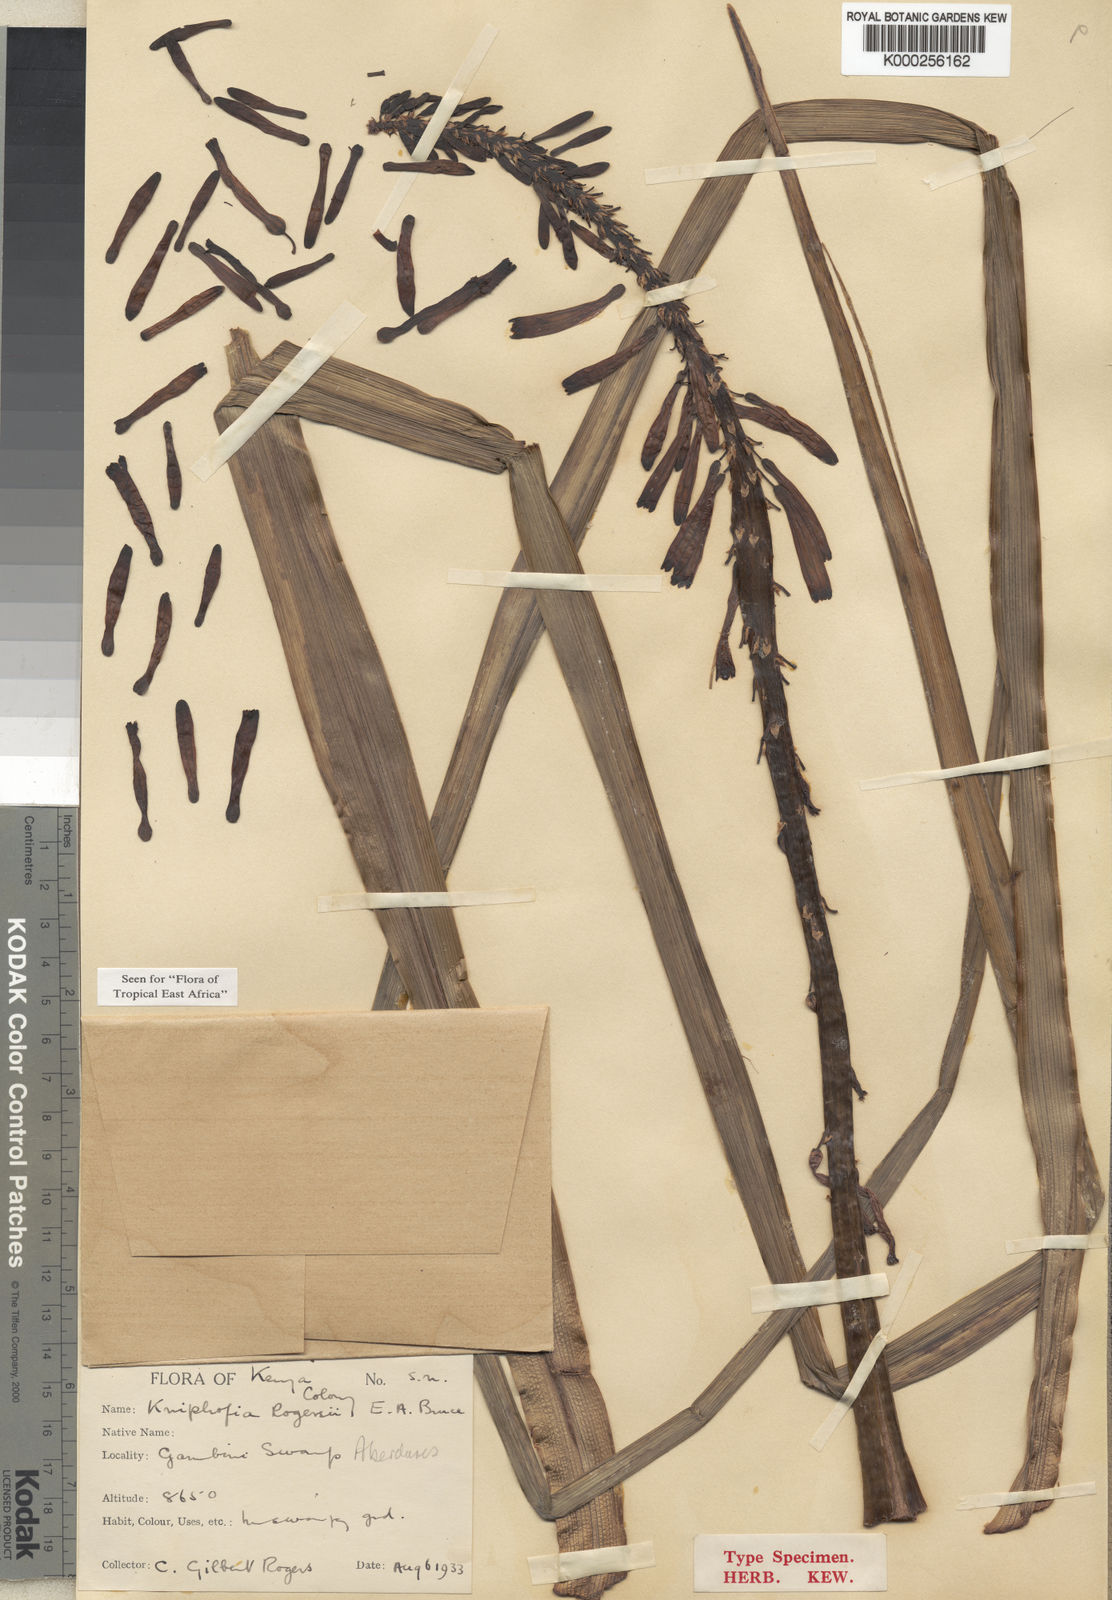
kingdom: Plantae
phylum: Tracheophyta
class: Liliopsida
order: Asparagales
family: Asphodelaceae
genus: Kniphofia
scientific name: Kniphofia thomsonii
